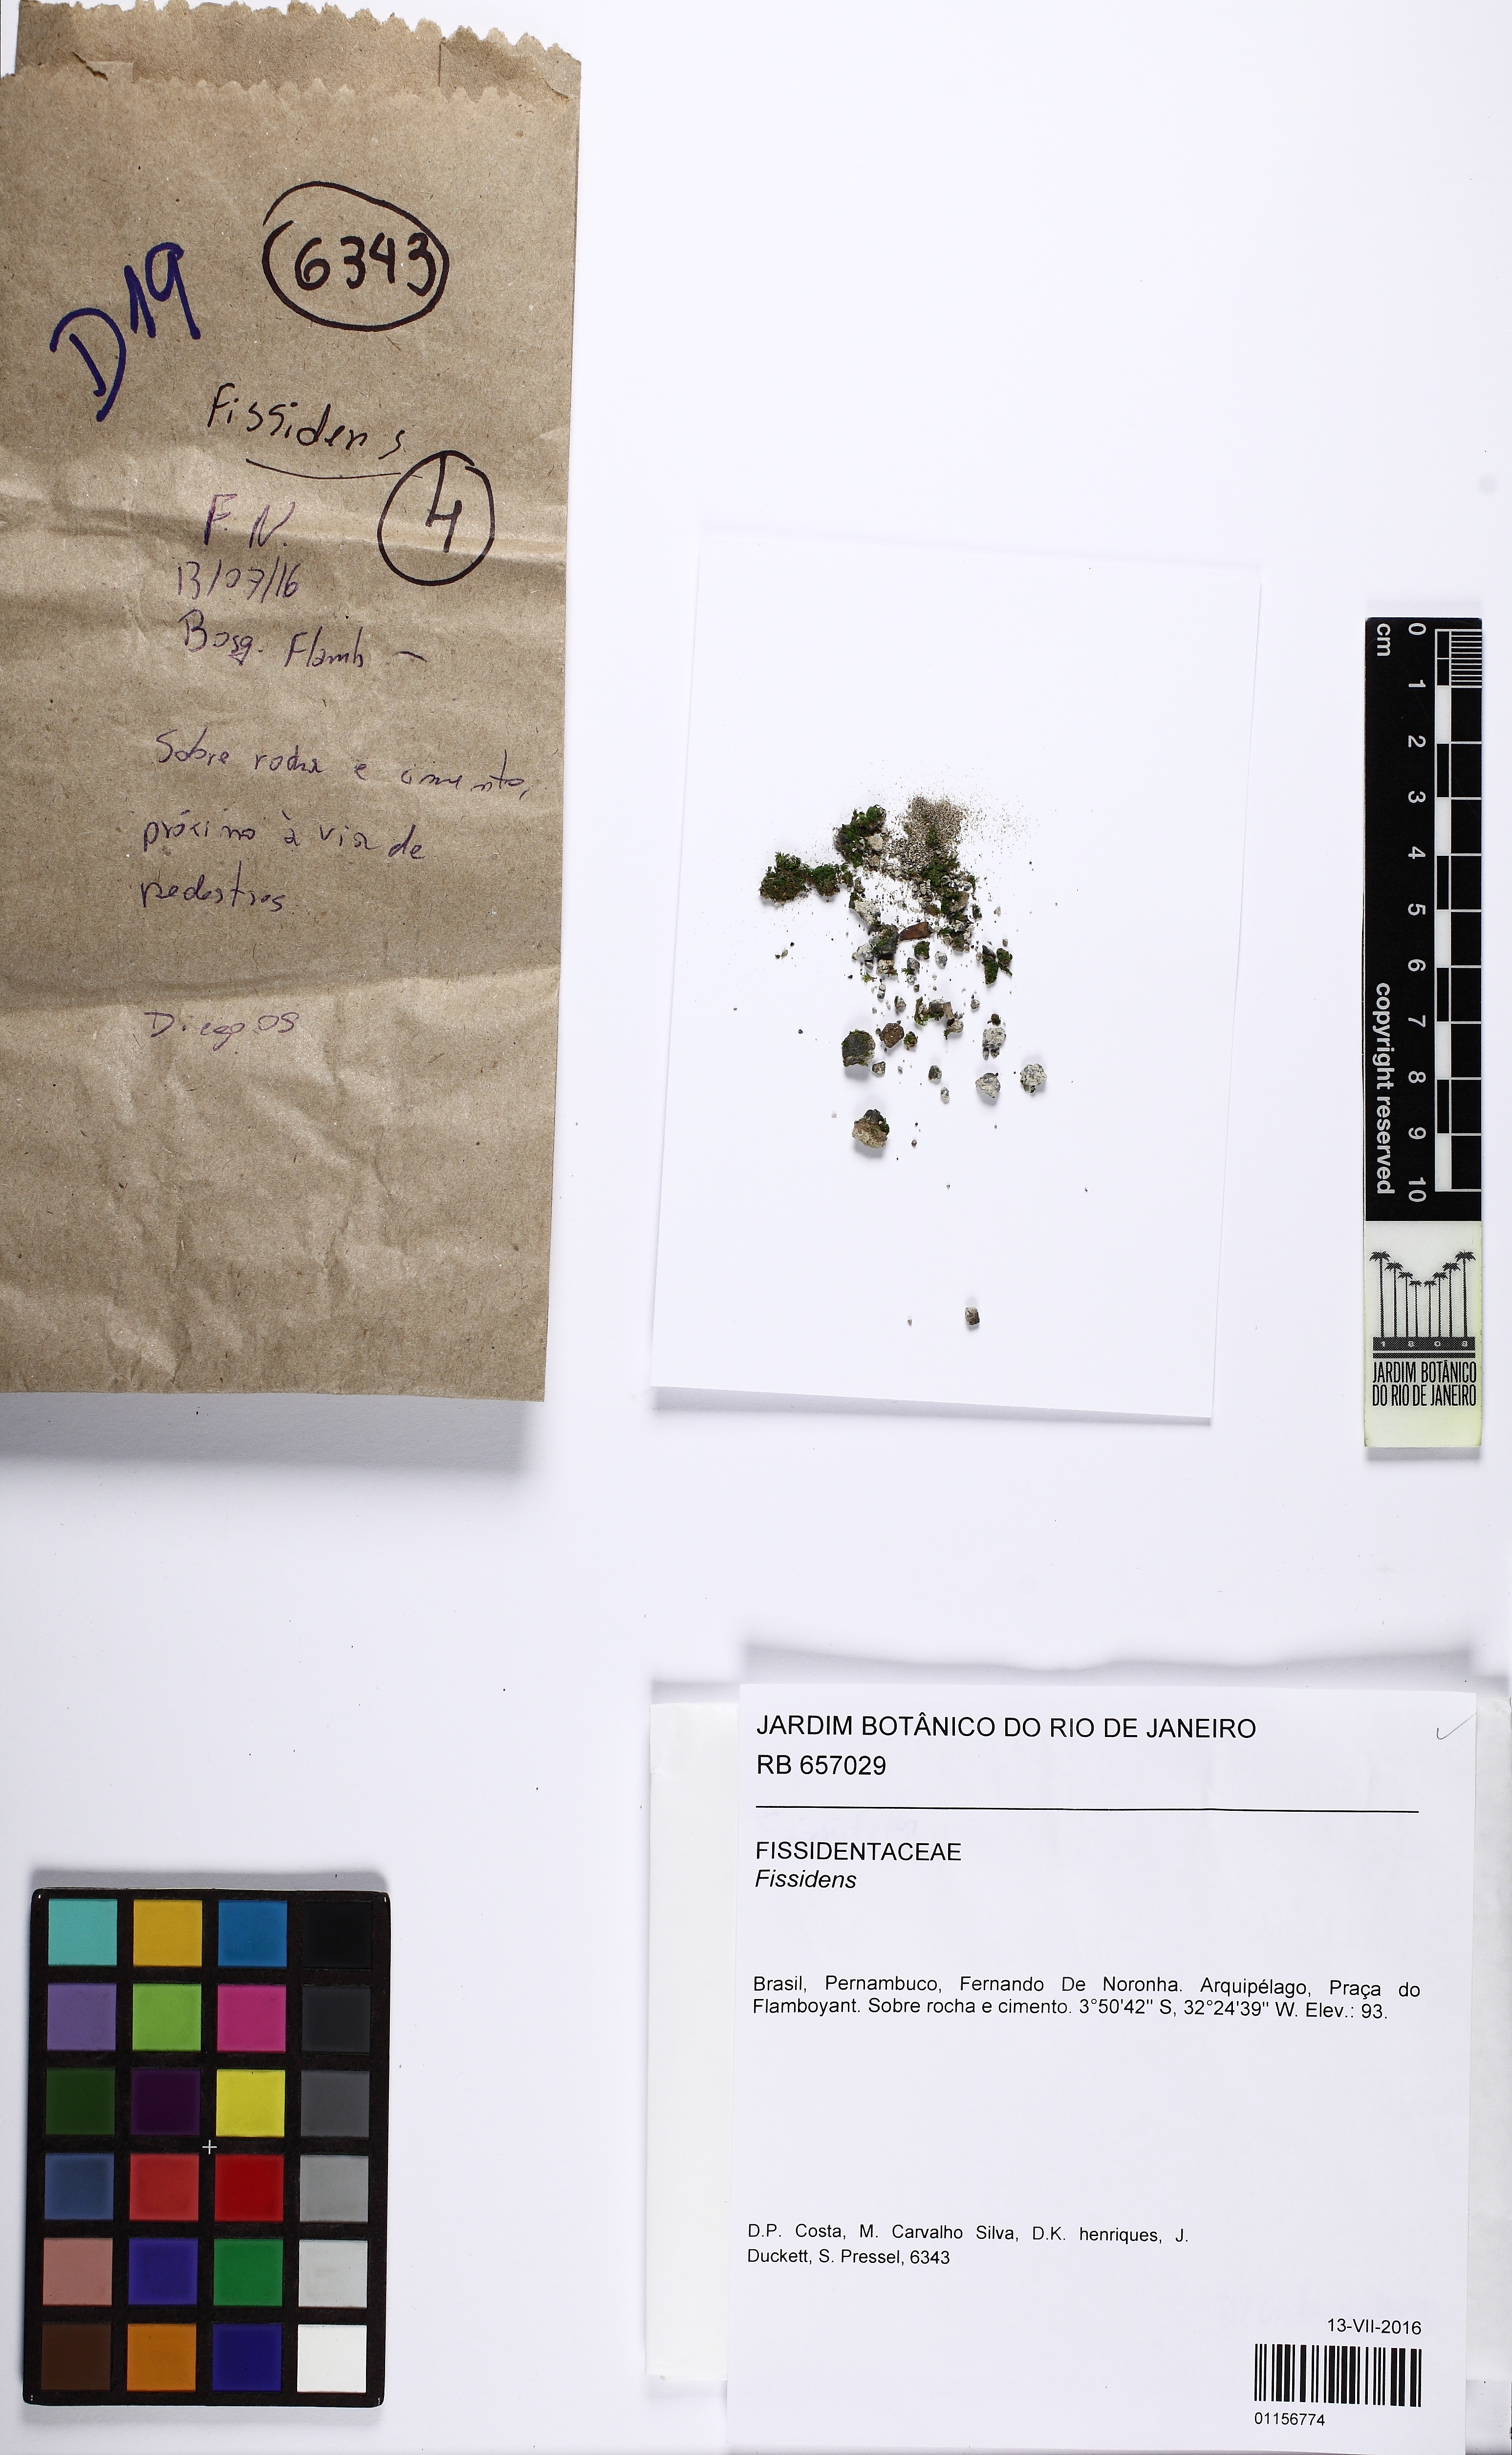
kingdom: Plantae
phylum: Bryophyta
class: Bryopsida
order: Dicranales
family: Fissidentaceae
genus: Fissidens
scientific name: Fissidens
